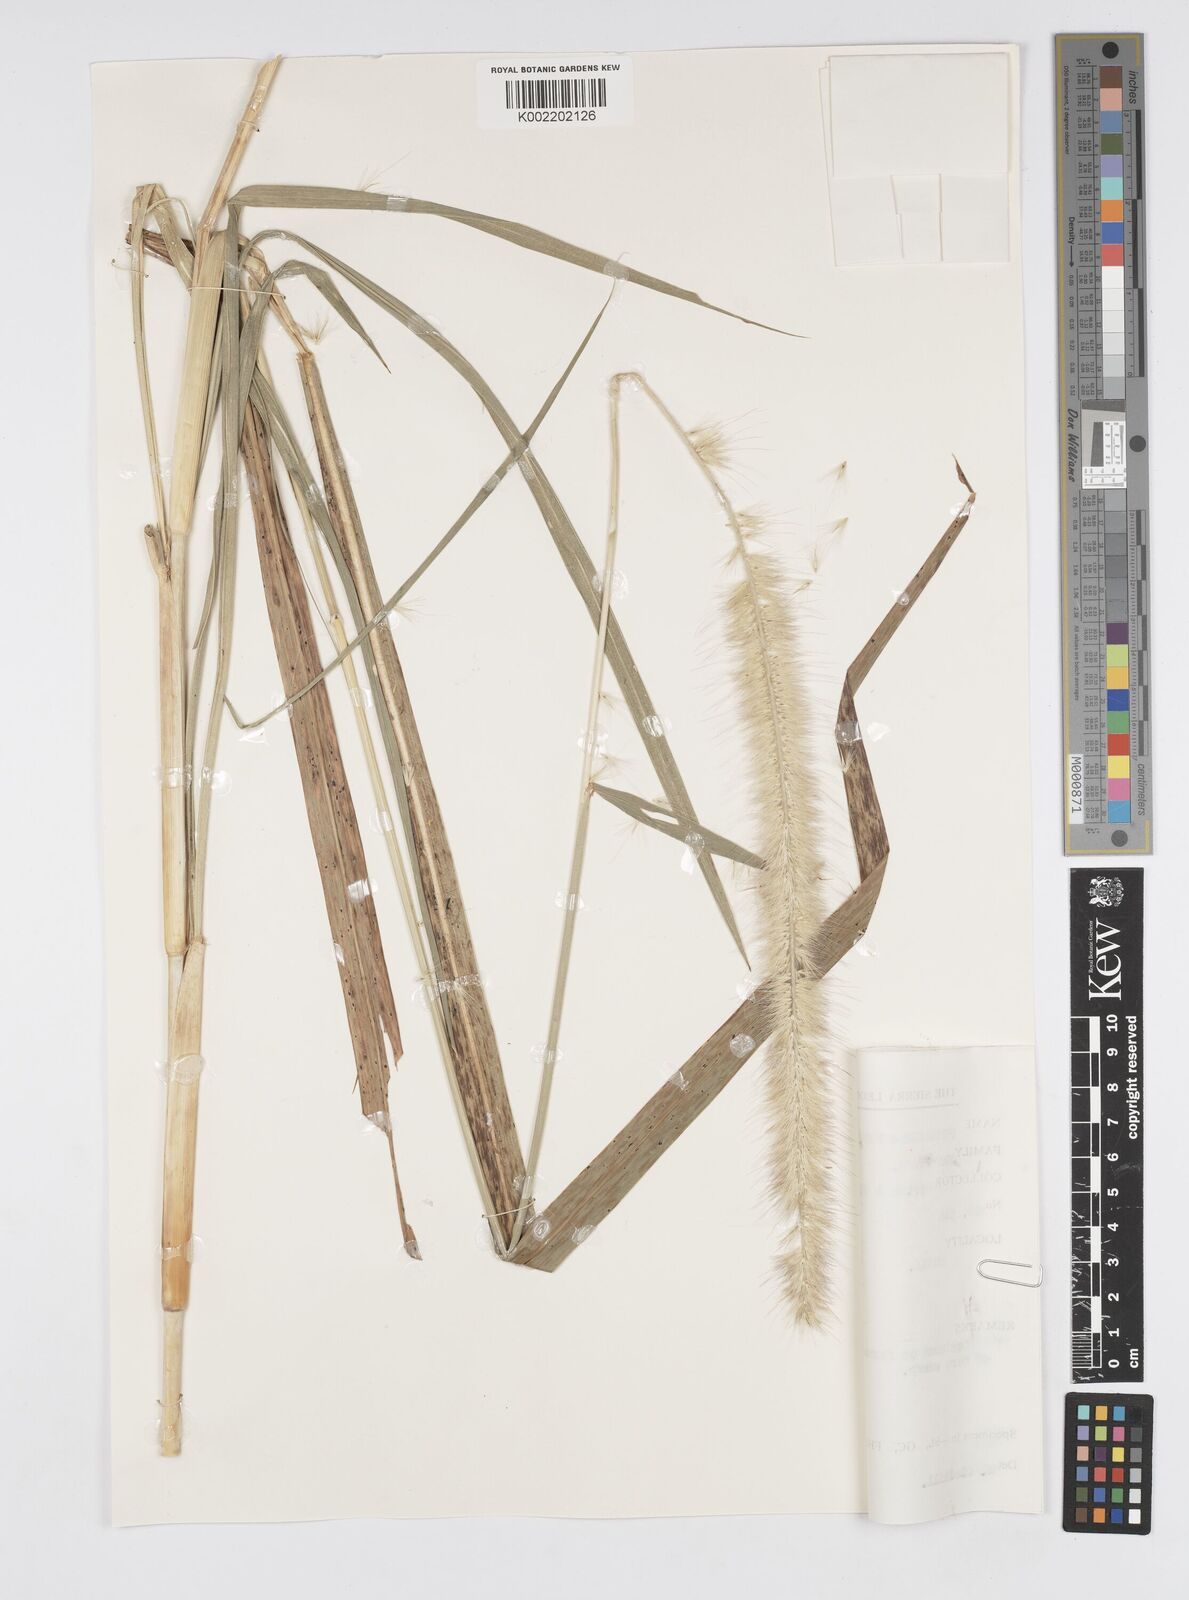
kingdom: Plantae
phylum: Tracheophyta
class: Liliopsida
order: Poales
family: Poaceae
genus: Cenchrus
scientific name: Cenchrus purpureus
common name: Elephant grass
